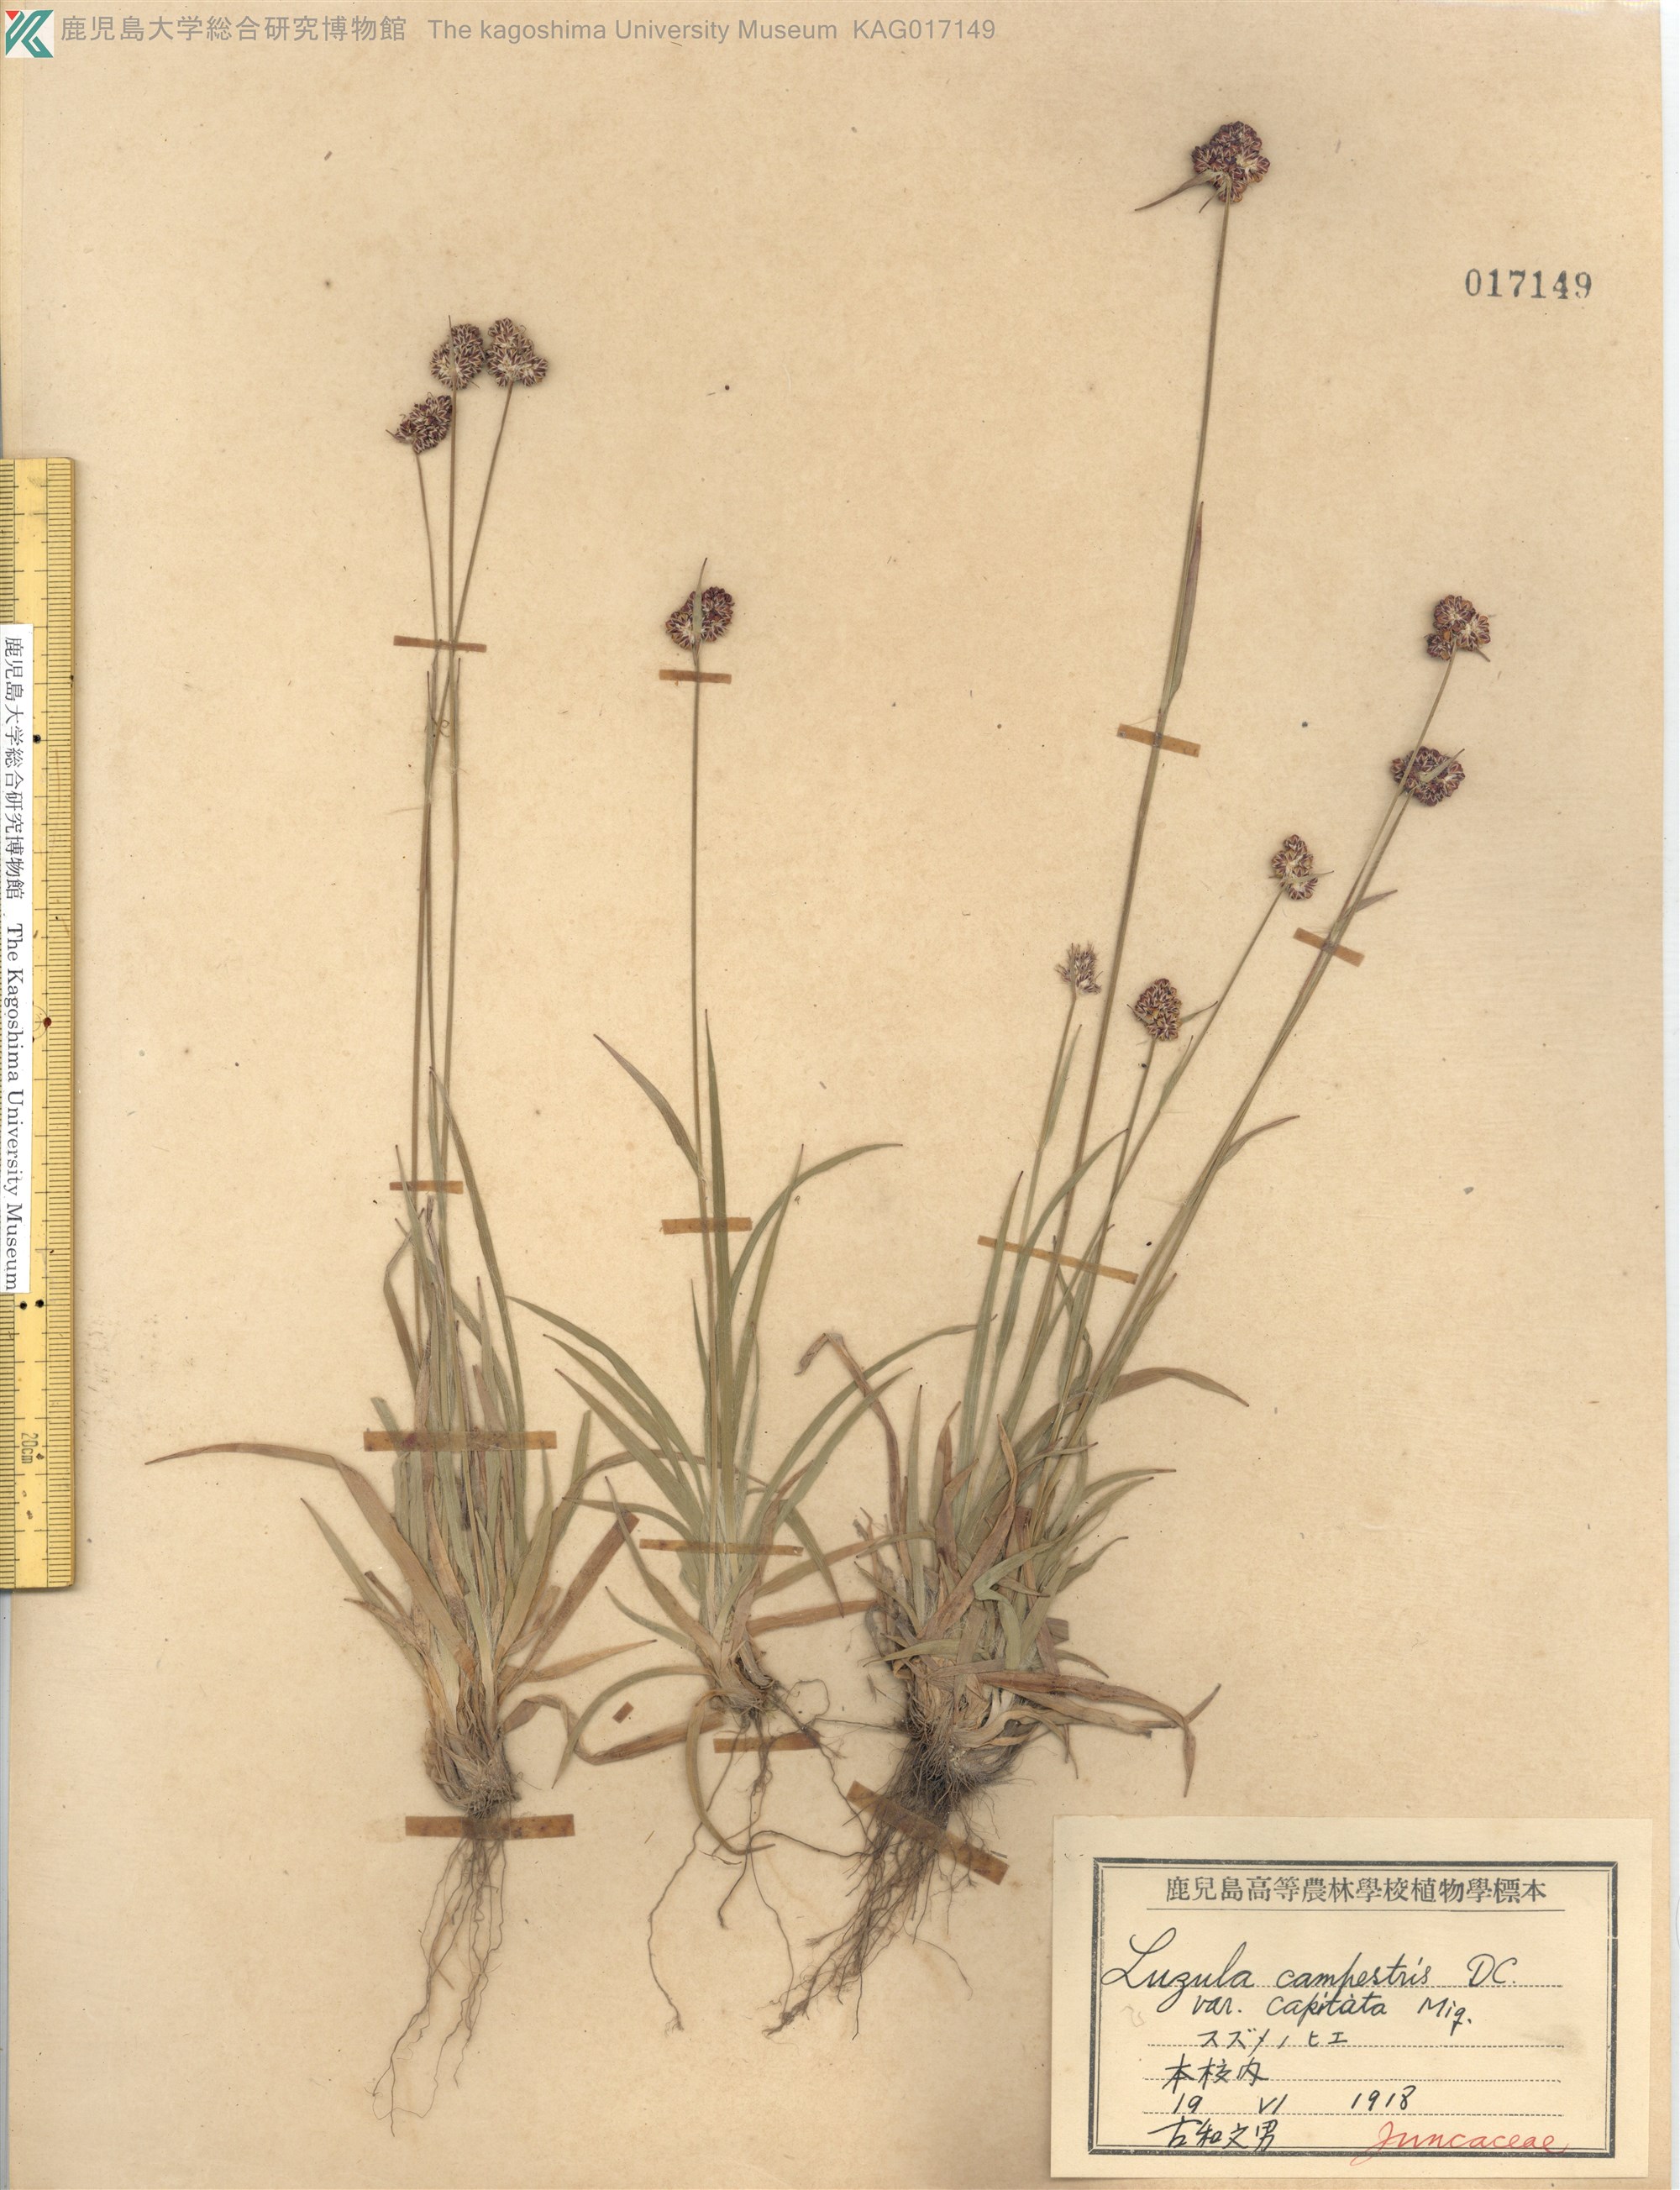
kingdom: Plantae
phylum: Tracheophyta
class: Liliopsida
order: Poales
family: Juncaceae
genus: Luzula
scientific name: Luzula capitata
